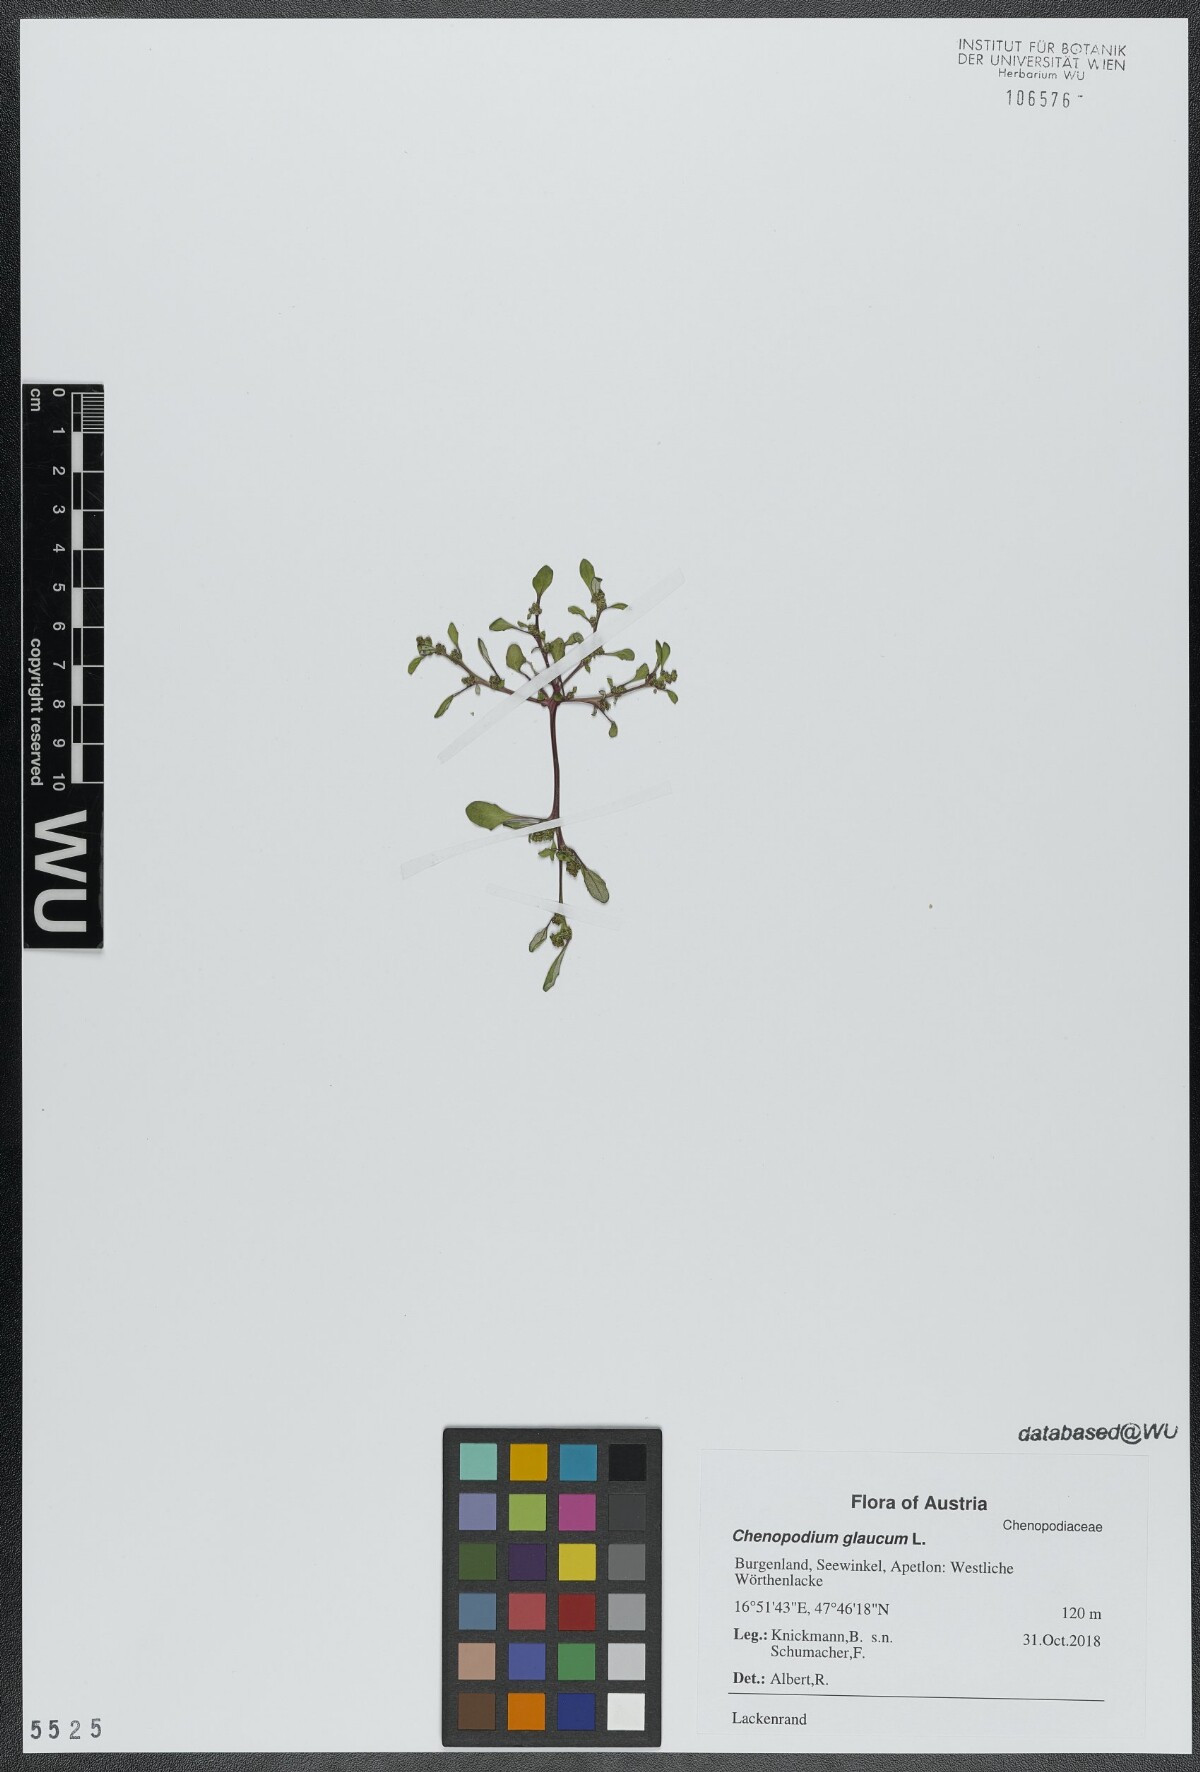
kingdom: Plantae
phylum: Tracheophyta
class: Magnoliopsida
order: Caryophyllales
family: Amaranthaceae
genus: Oxybasis
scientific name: Oxybasis glauca
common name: Glaucous goosefoot
